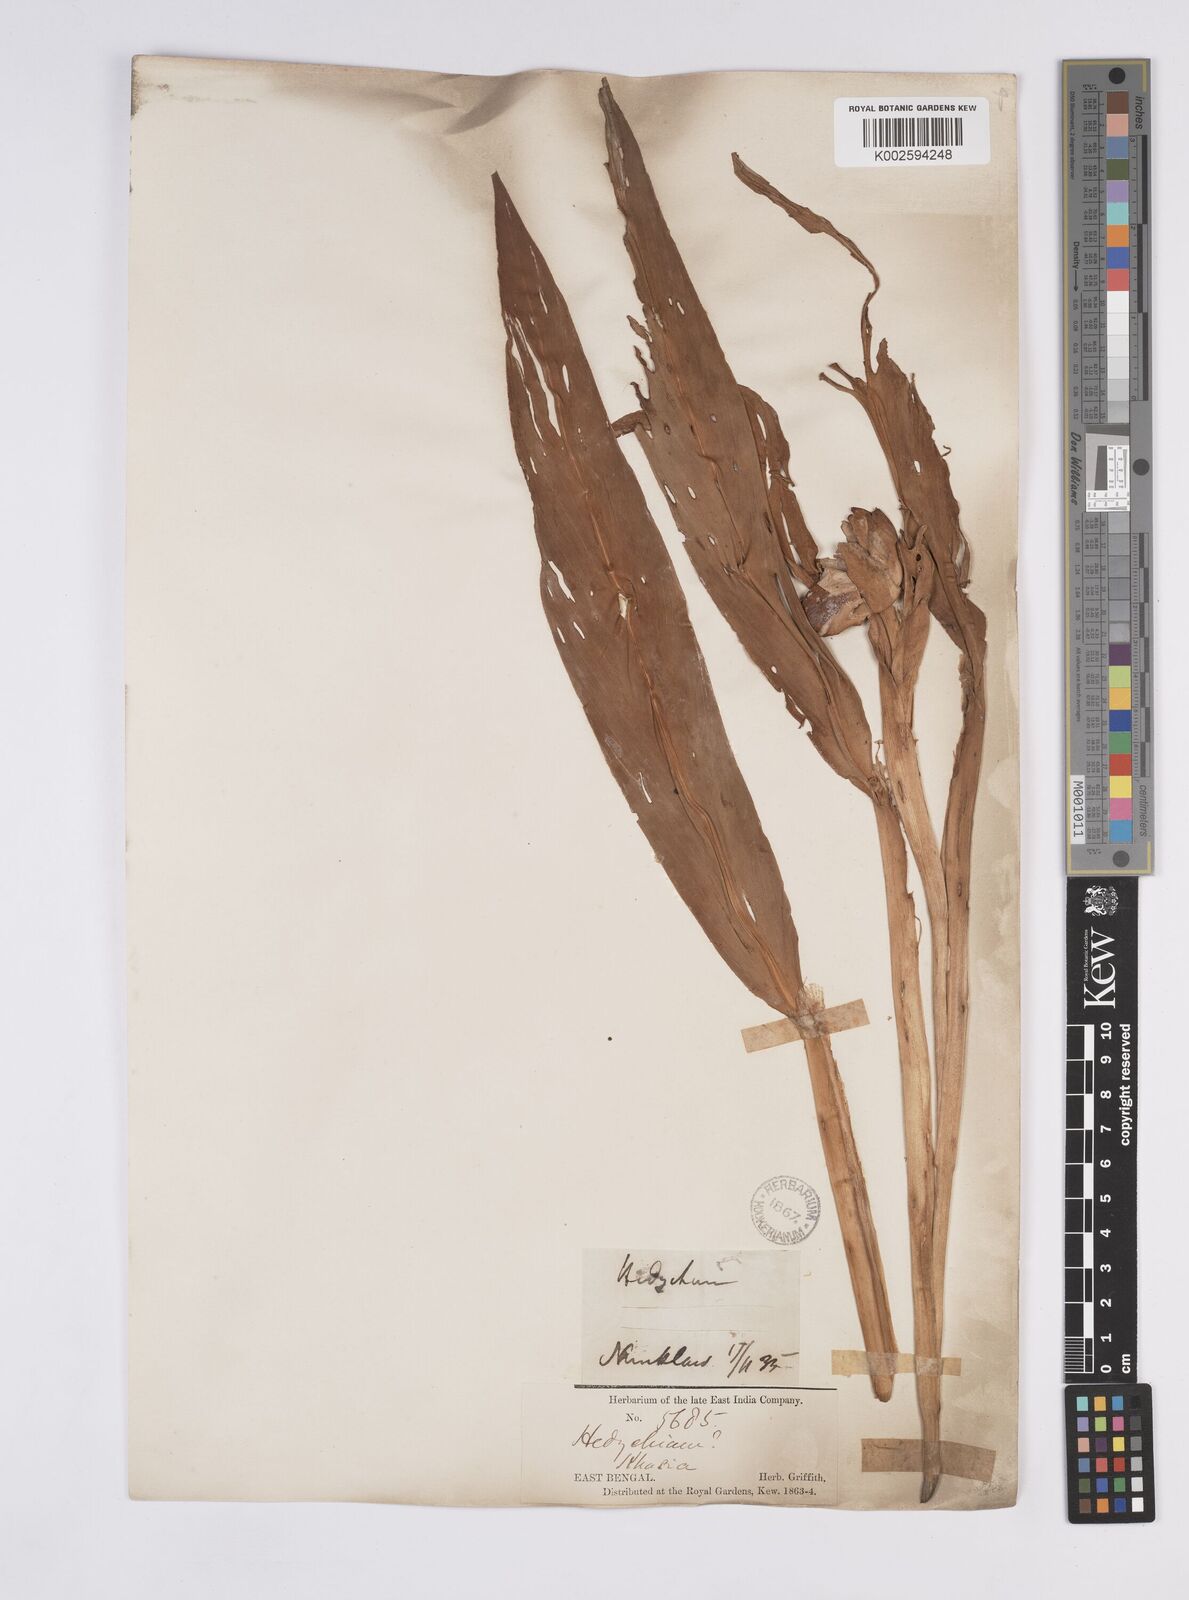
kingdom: Plantae
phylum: Tracheophyta
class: Liliopsida
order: Zingiberales
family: Zingiberaceae
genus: Hedychium
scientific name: Hedychium coronarium
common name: White garland-lily
